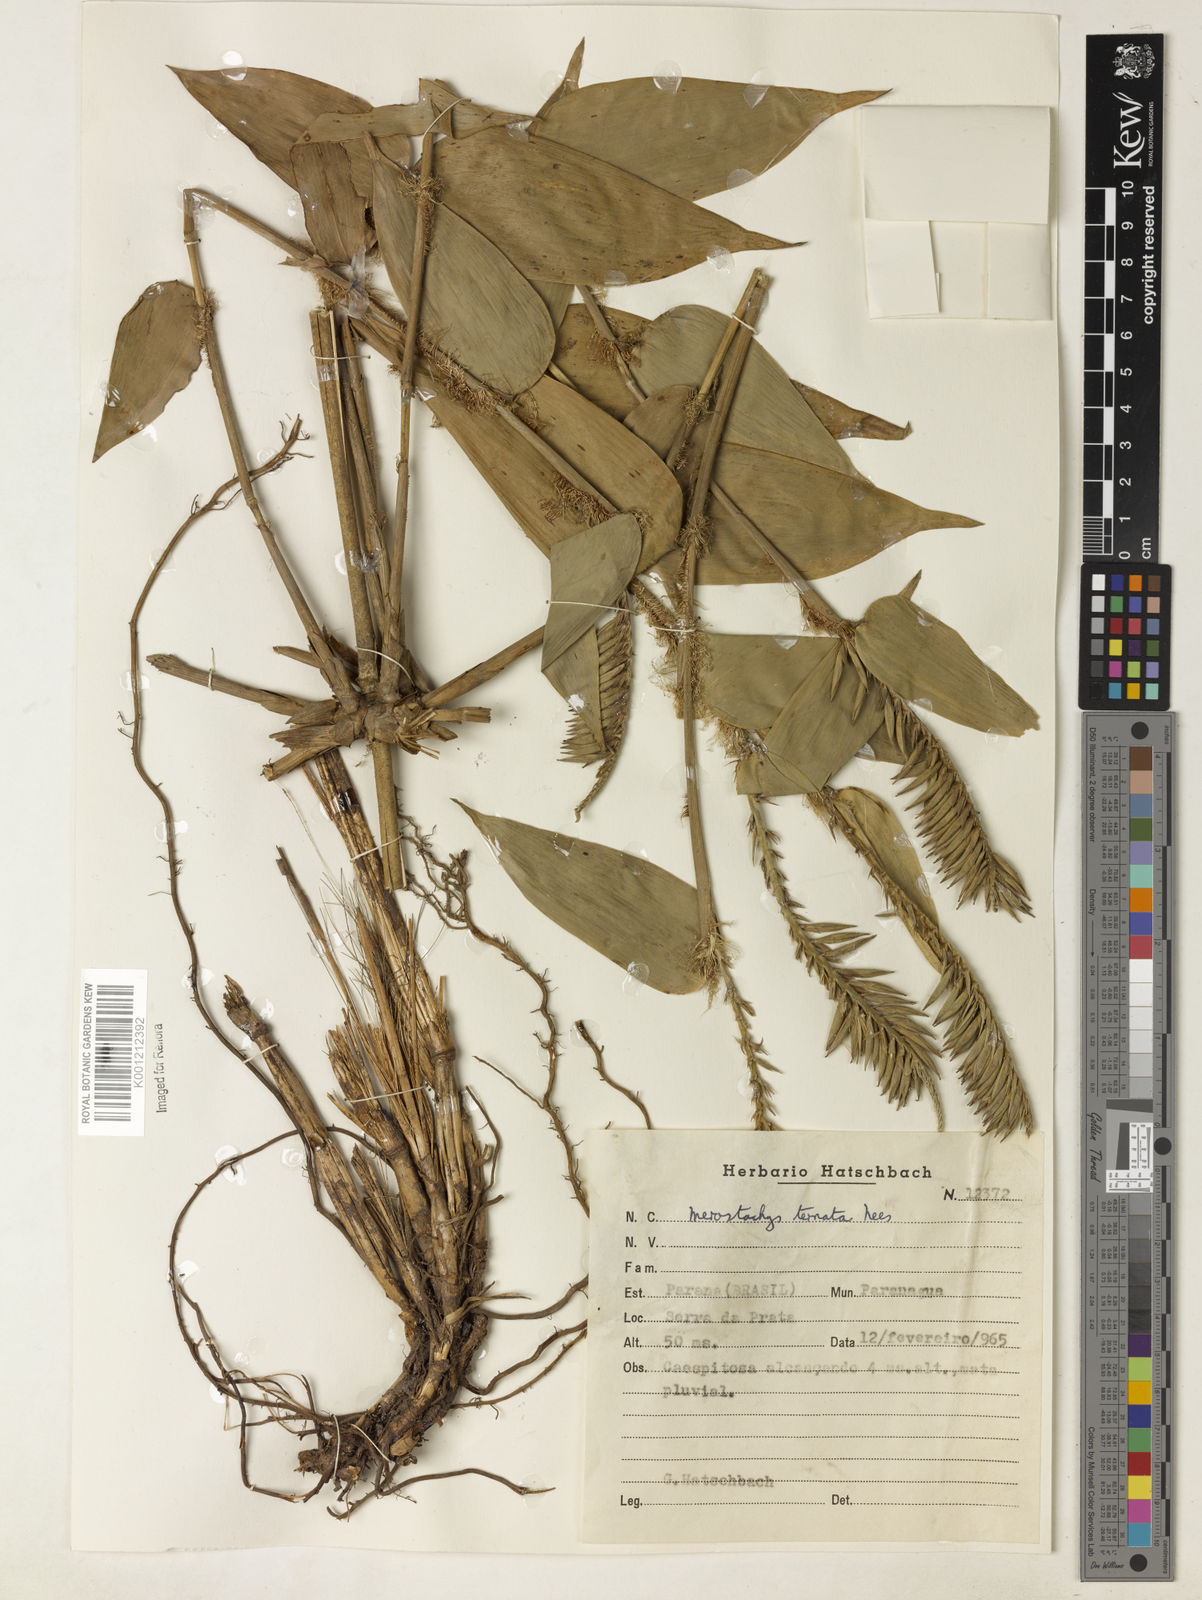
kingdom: Plantae
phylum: Tracheophyta
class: Liliopsida
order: Poales
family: Poaceae
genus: Merostachys
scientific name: Merostachys ternata
